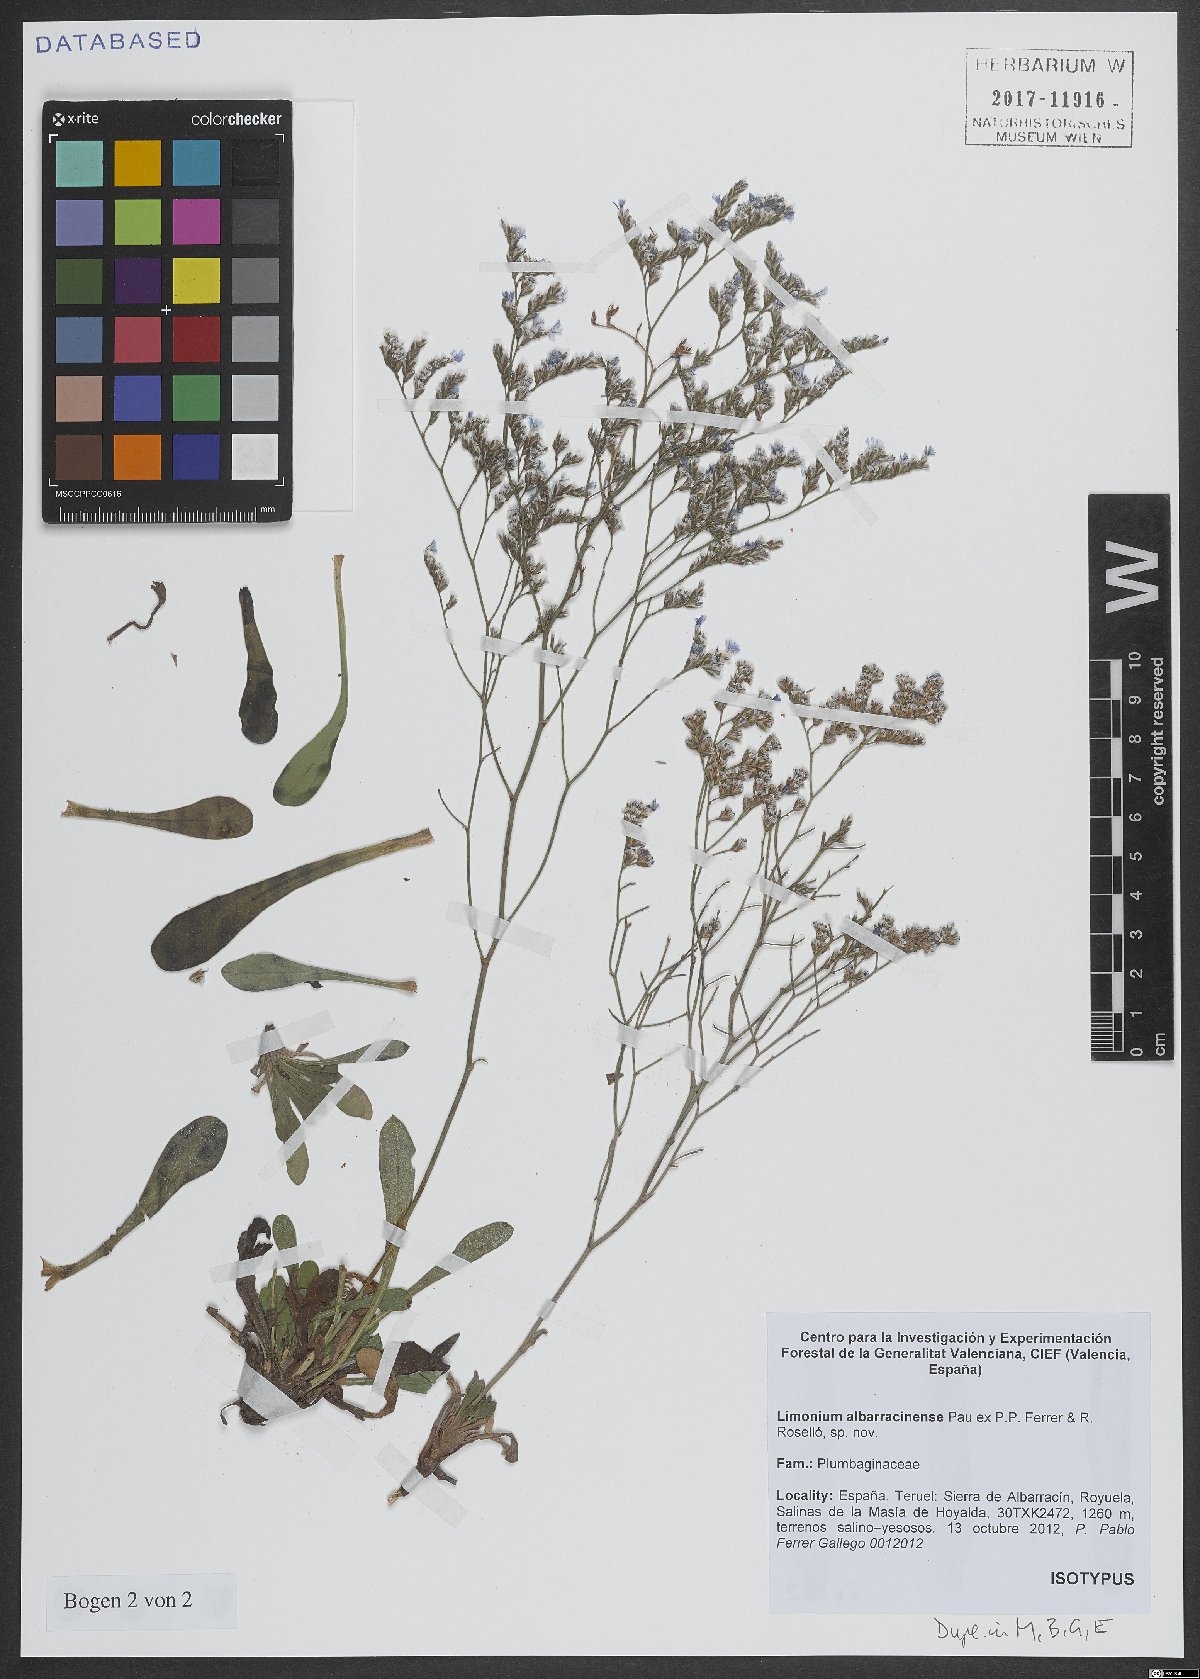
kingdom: Plantae
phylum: Tracheophyta
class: Magnoliopsida
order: Caryophyllales
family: Plumbaginaceae
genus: Limonium
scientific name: Limonium albarracinense
